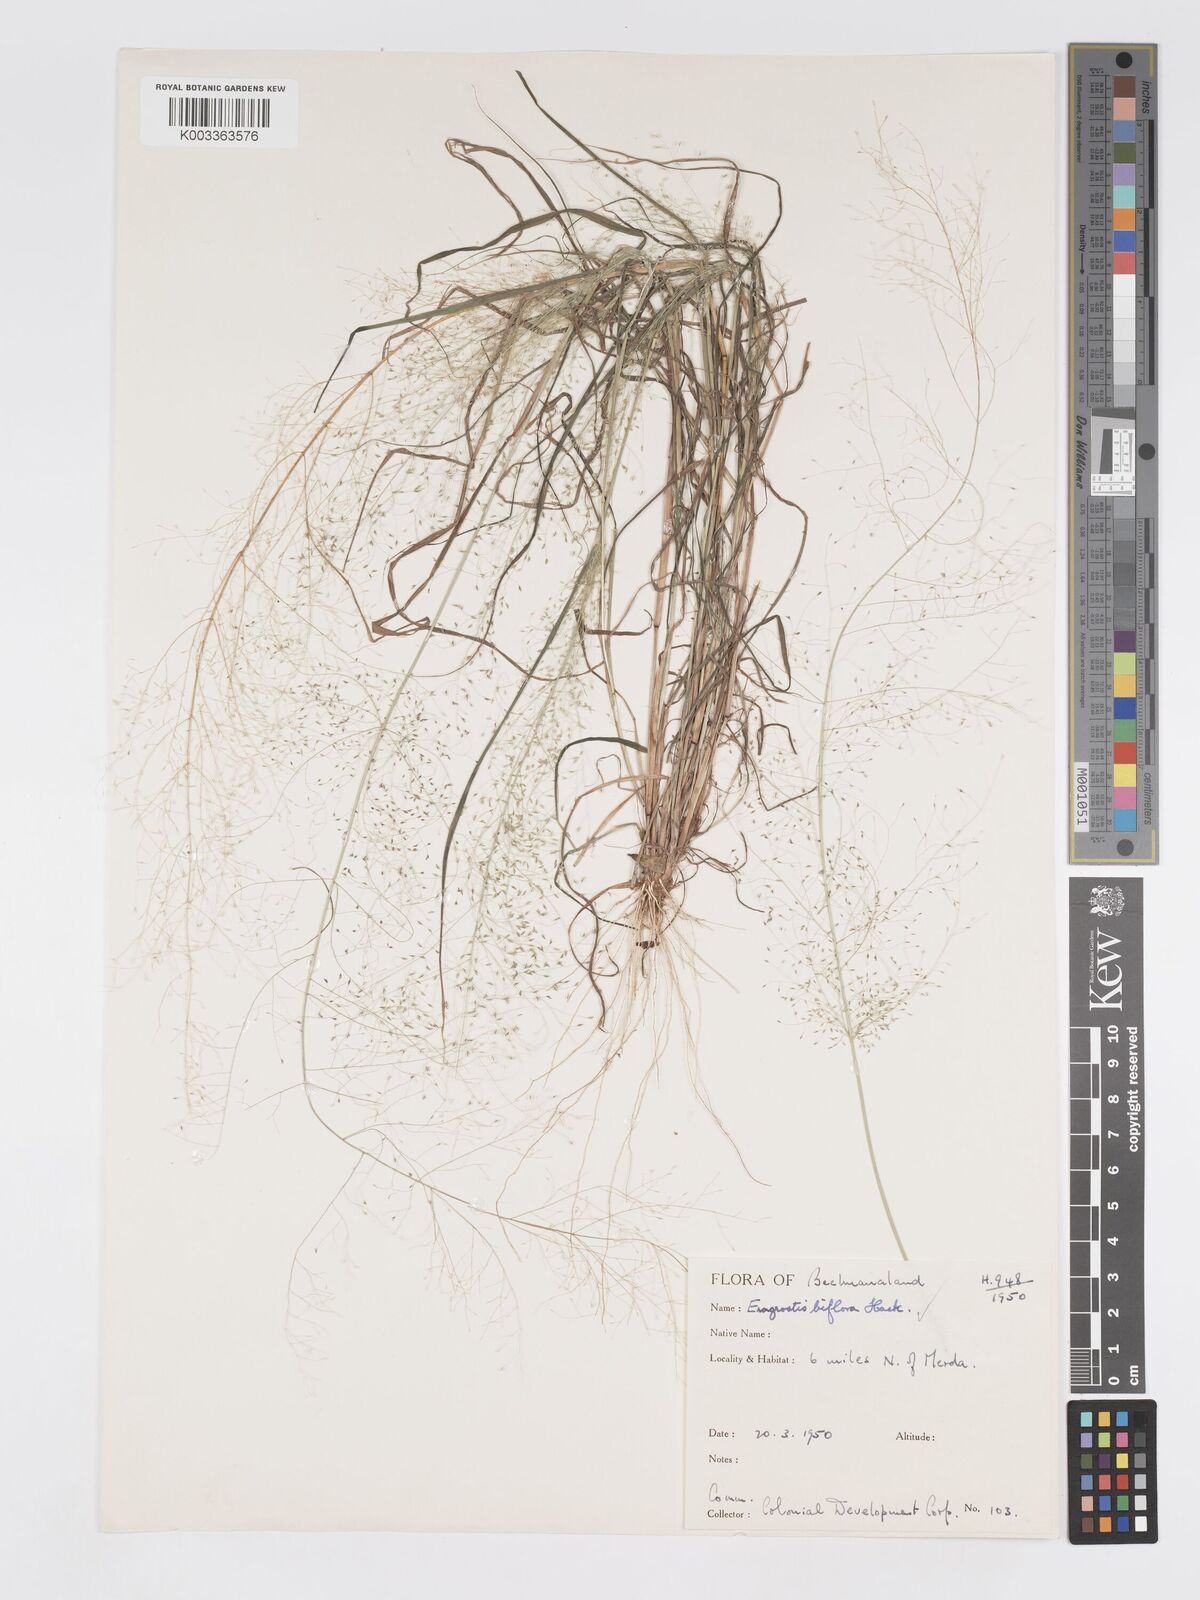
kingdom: Plantae
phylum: Tracheophyta
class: Liliopsida
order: Poales
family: Poaceae
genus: Eragrostis
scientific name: Eragrostis biflora
